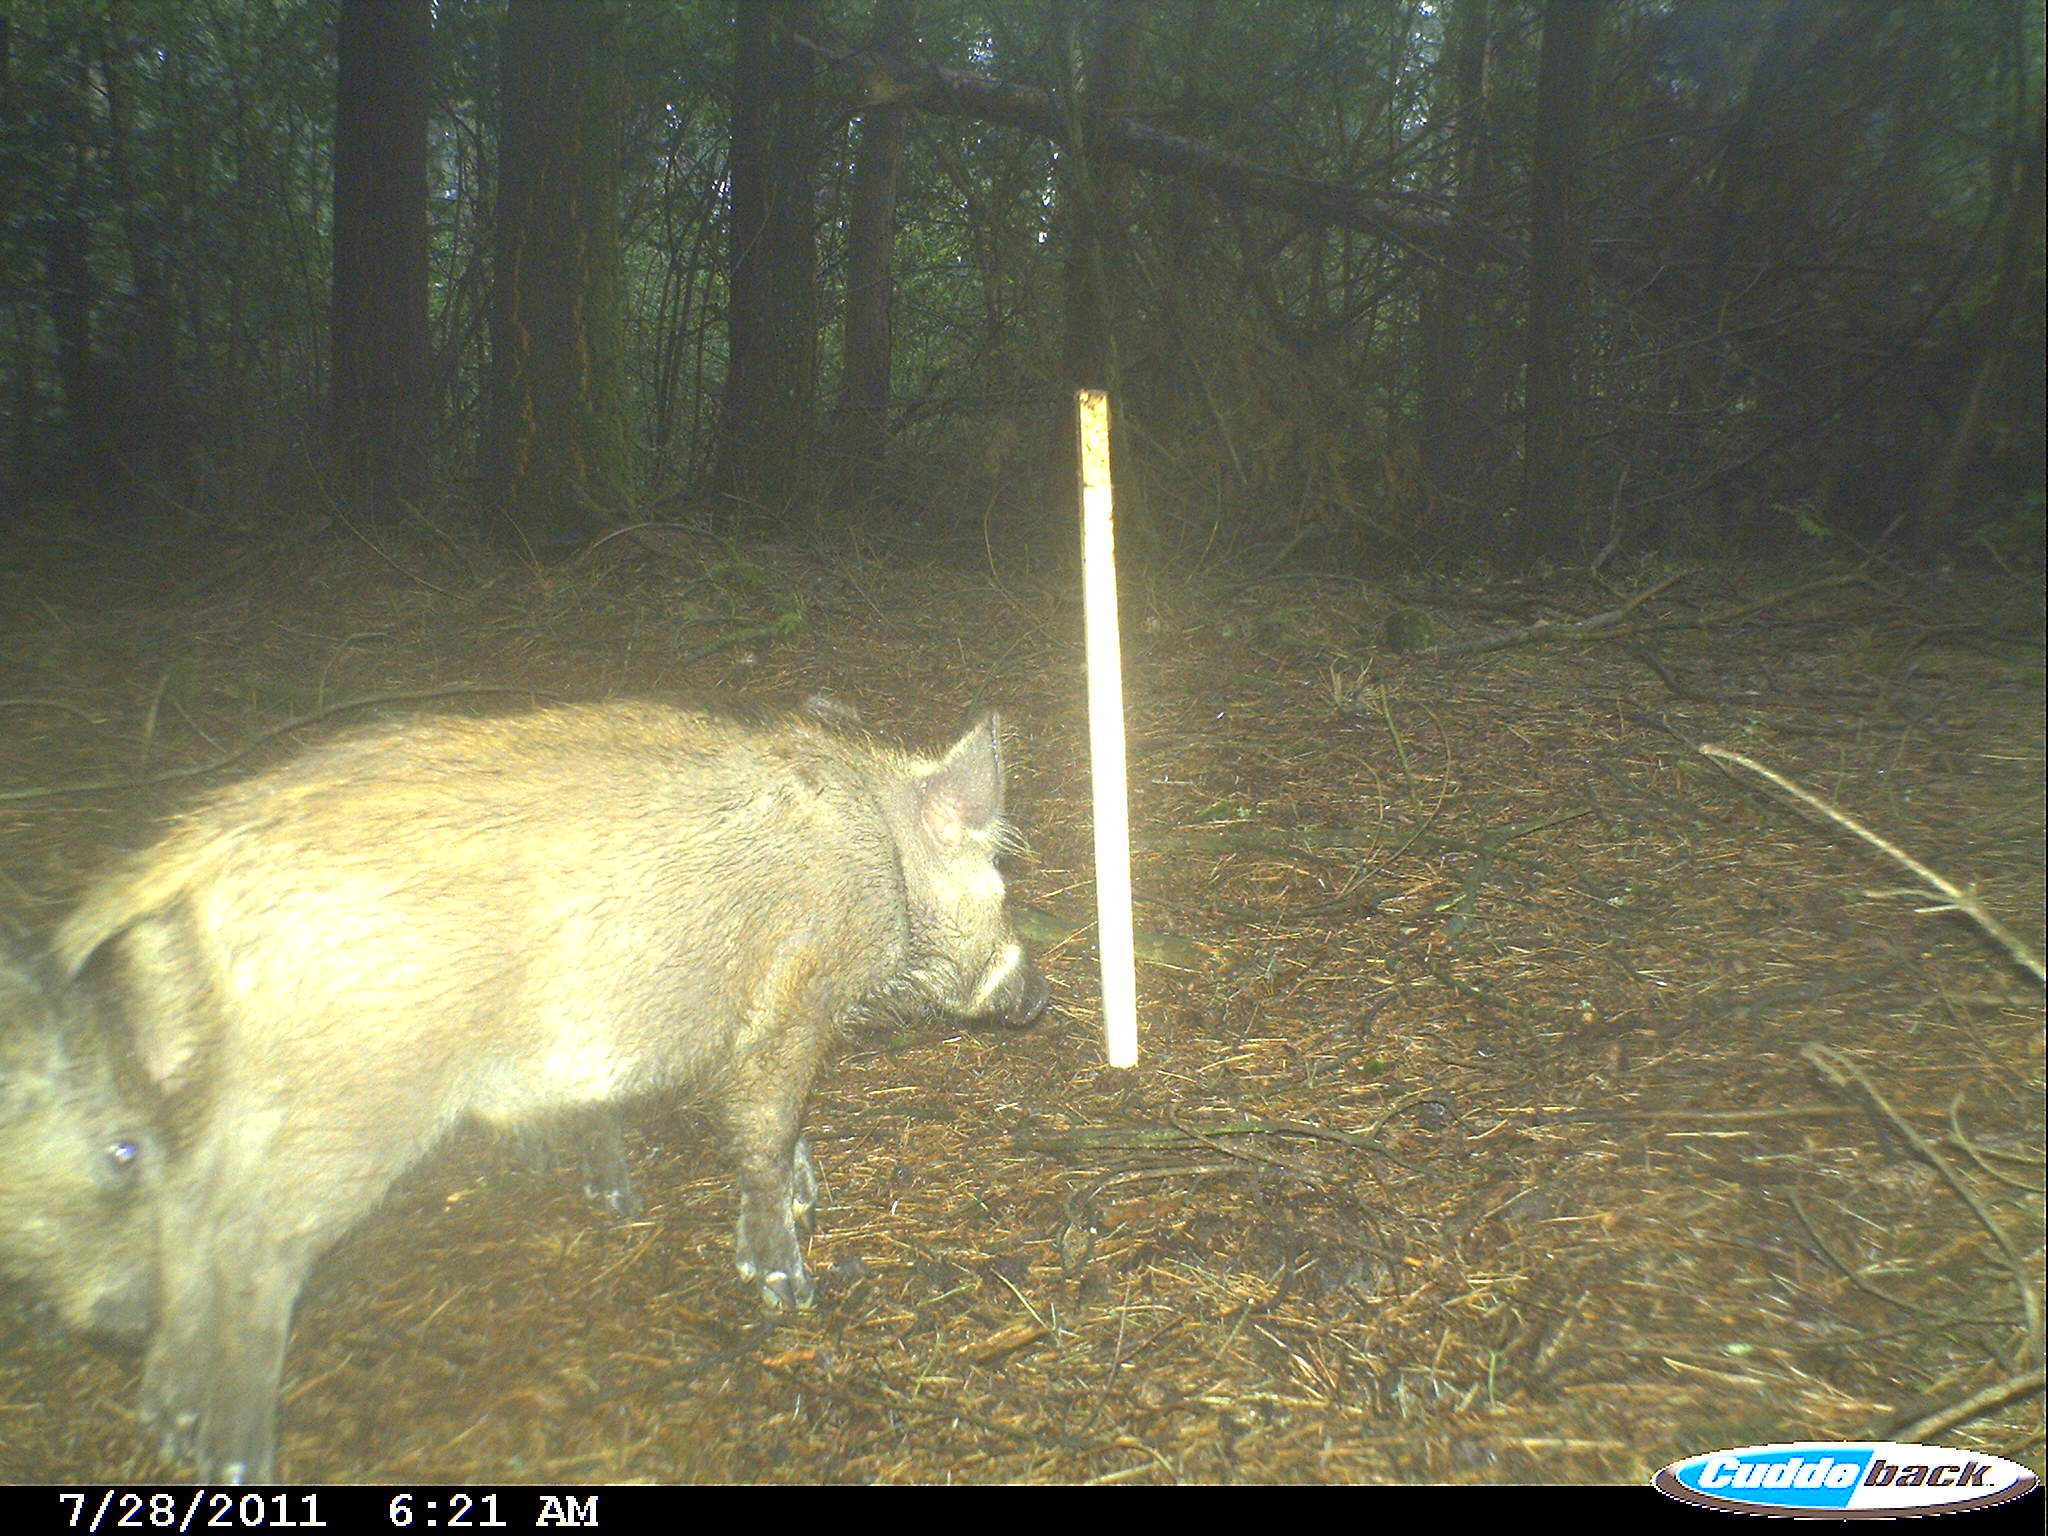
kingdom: Animalia
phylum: Chordata
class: Mammalia
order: Artiodactyla
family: Suidae
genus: Sus
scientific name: Sus scrofa
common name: Wild boar
